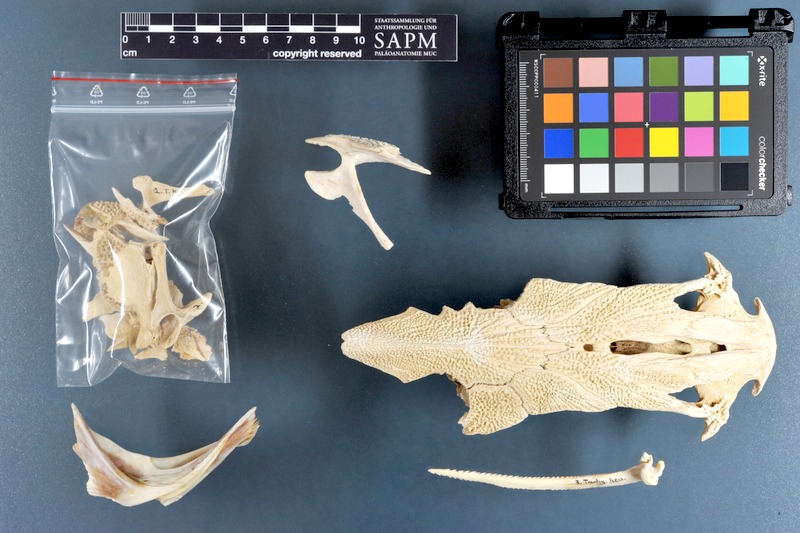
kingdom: Animalia
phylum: Chordata
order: Siluriformes
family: Ariidae
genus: Carlarius
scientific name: Carlarius heudelotii
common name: Smoothmouth sea catfish
